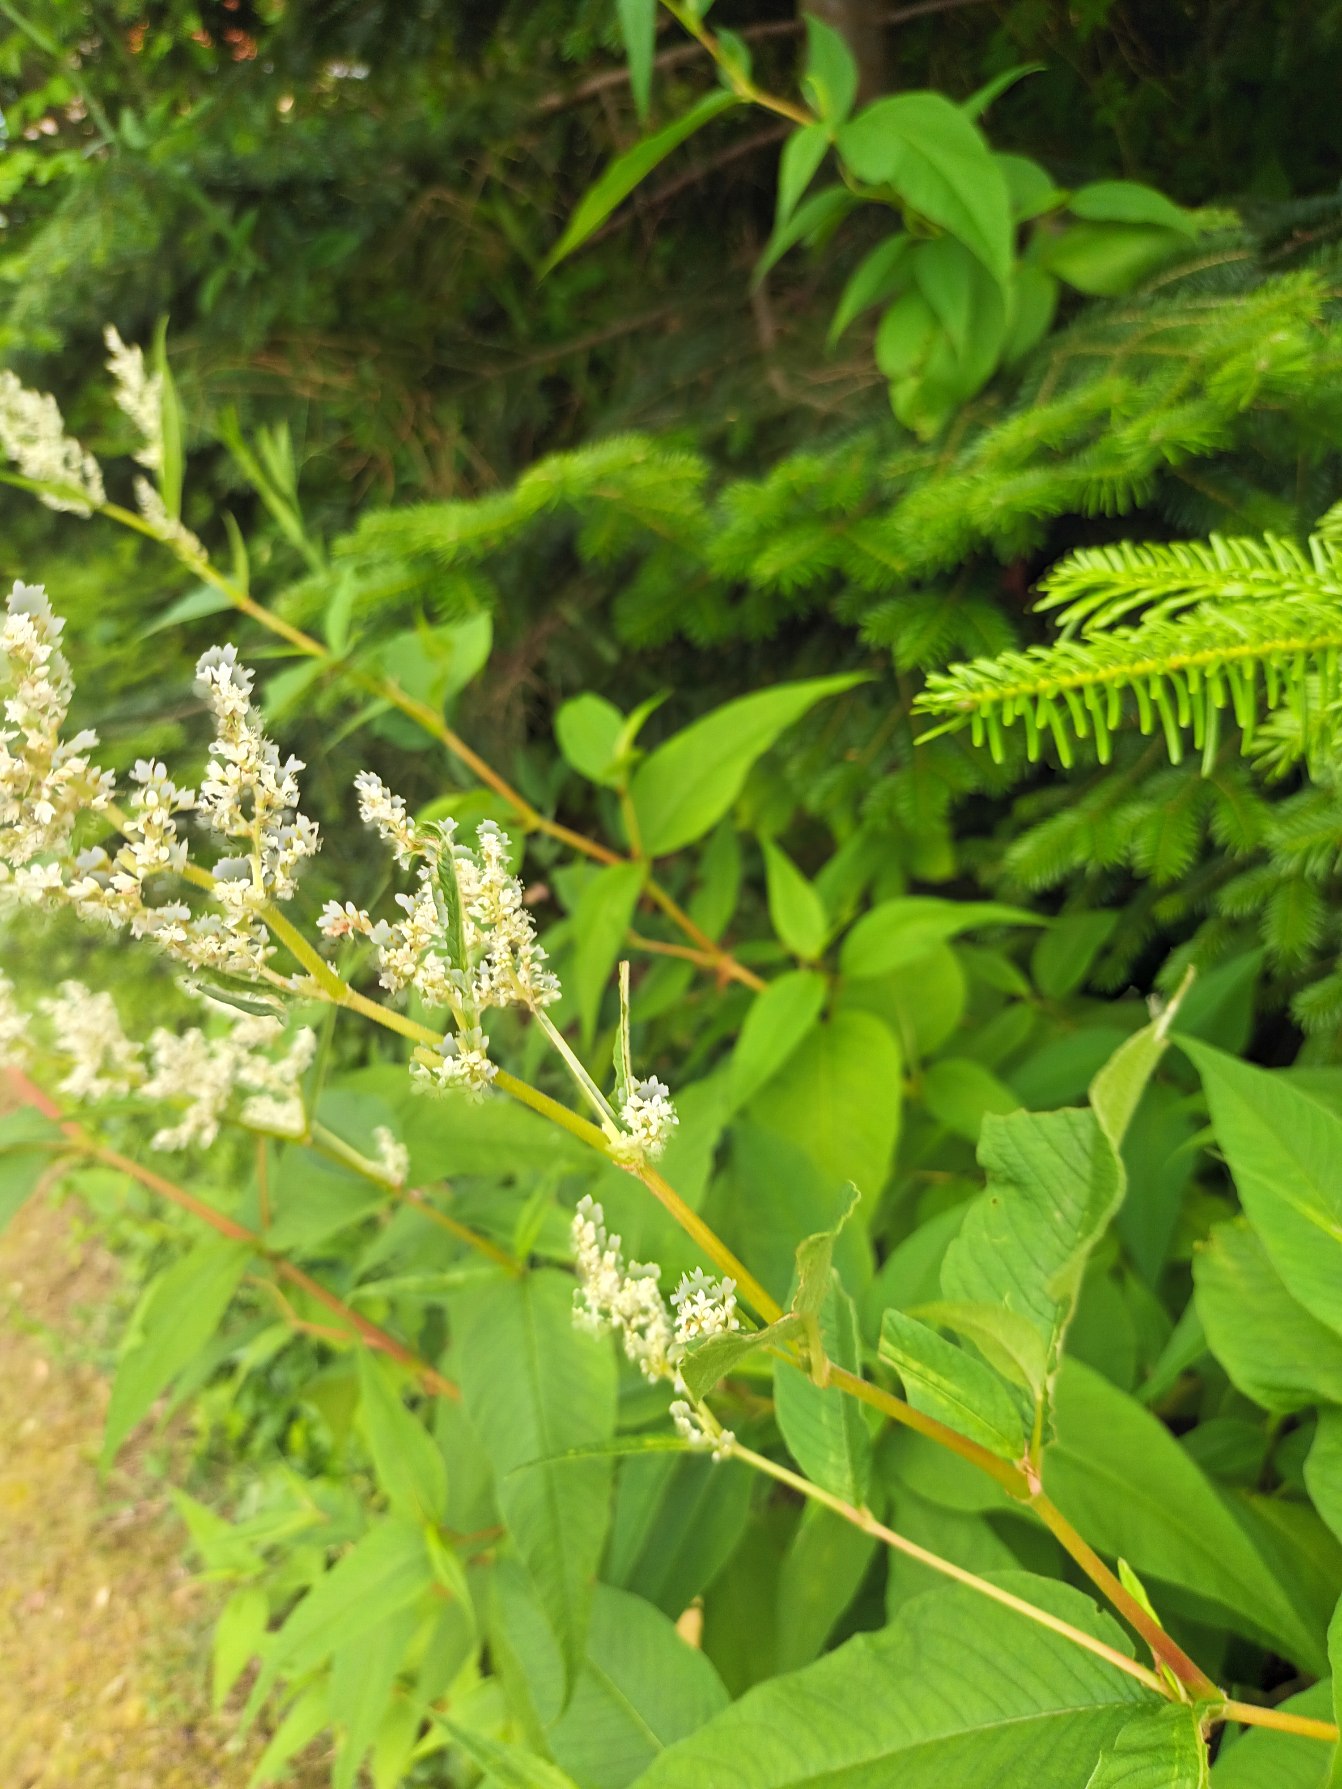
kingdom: Plantae
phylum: Tracheophyta
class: Magnoliopsida
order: Caryophyllales
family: Polygonaceae
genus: Koenigia
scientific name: Koenigia fennica
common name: Finsk pileurt
